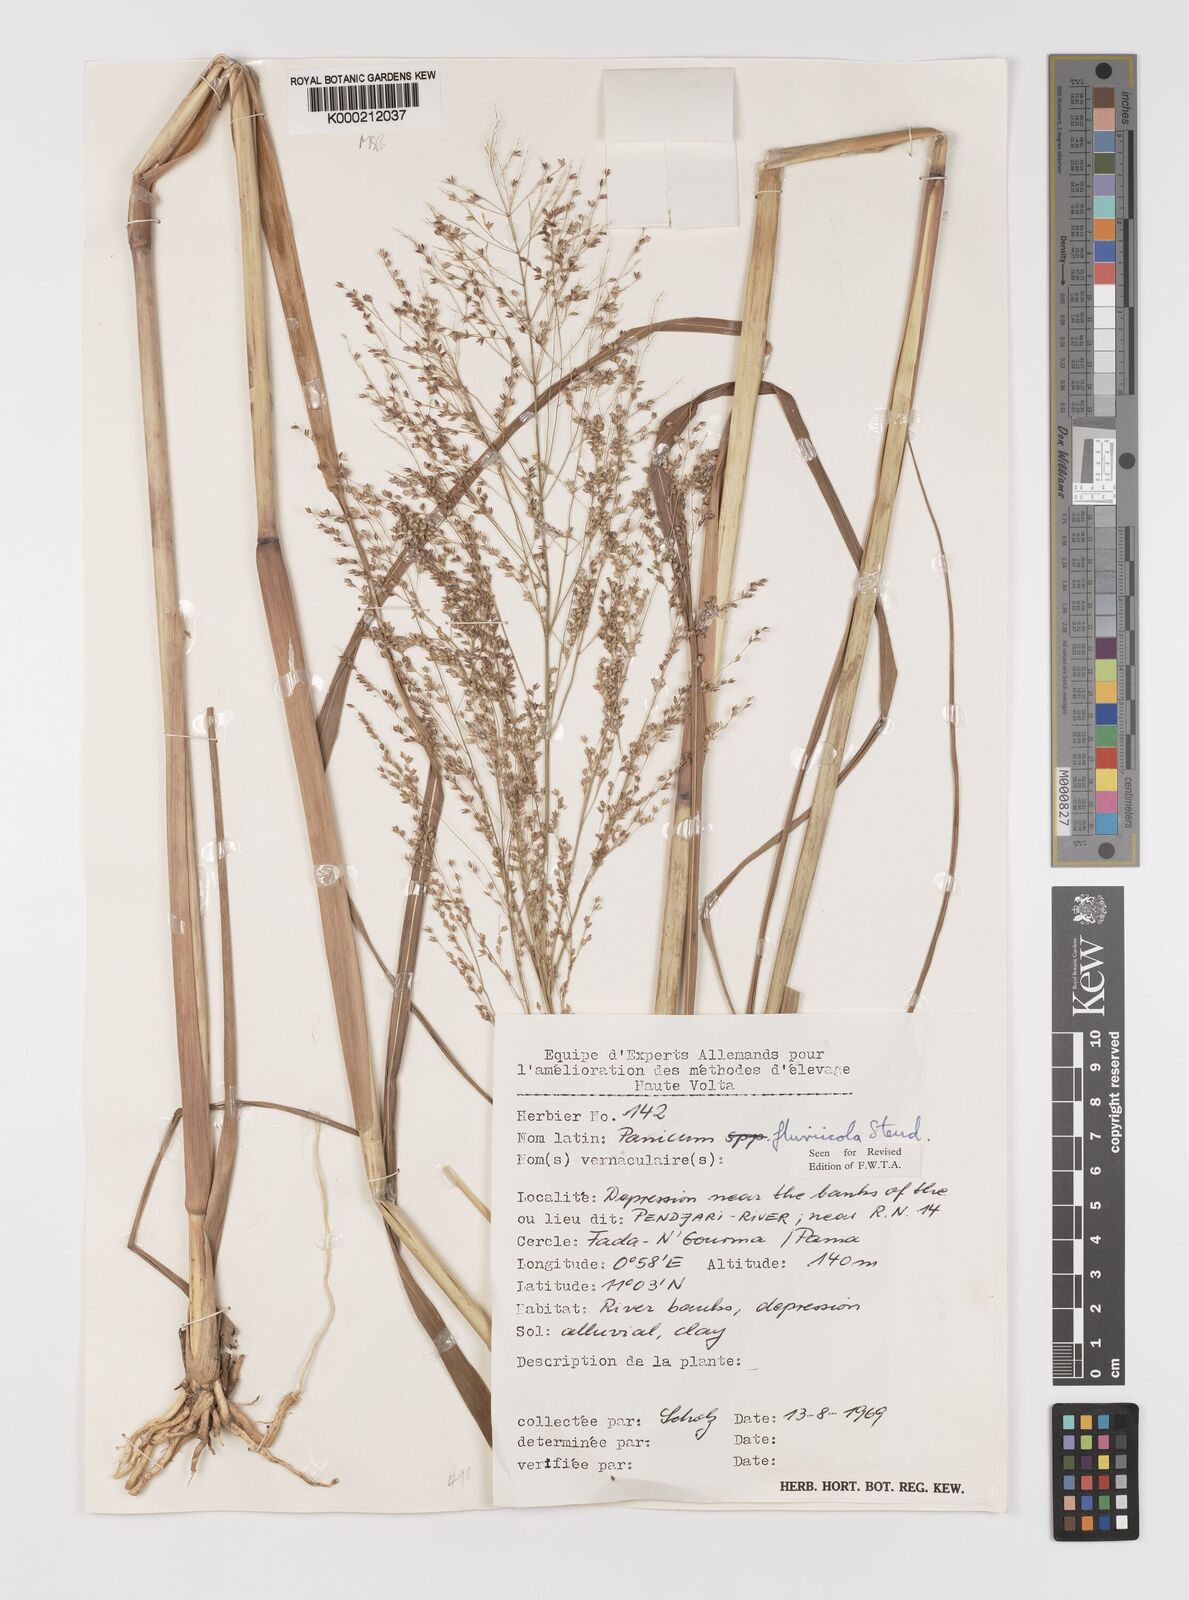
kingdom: Plantae
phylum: Tracheophyta
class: Liliopsida
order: Poales
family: Poaceae
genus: Panicum
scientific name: Panicum fluviicola
